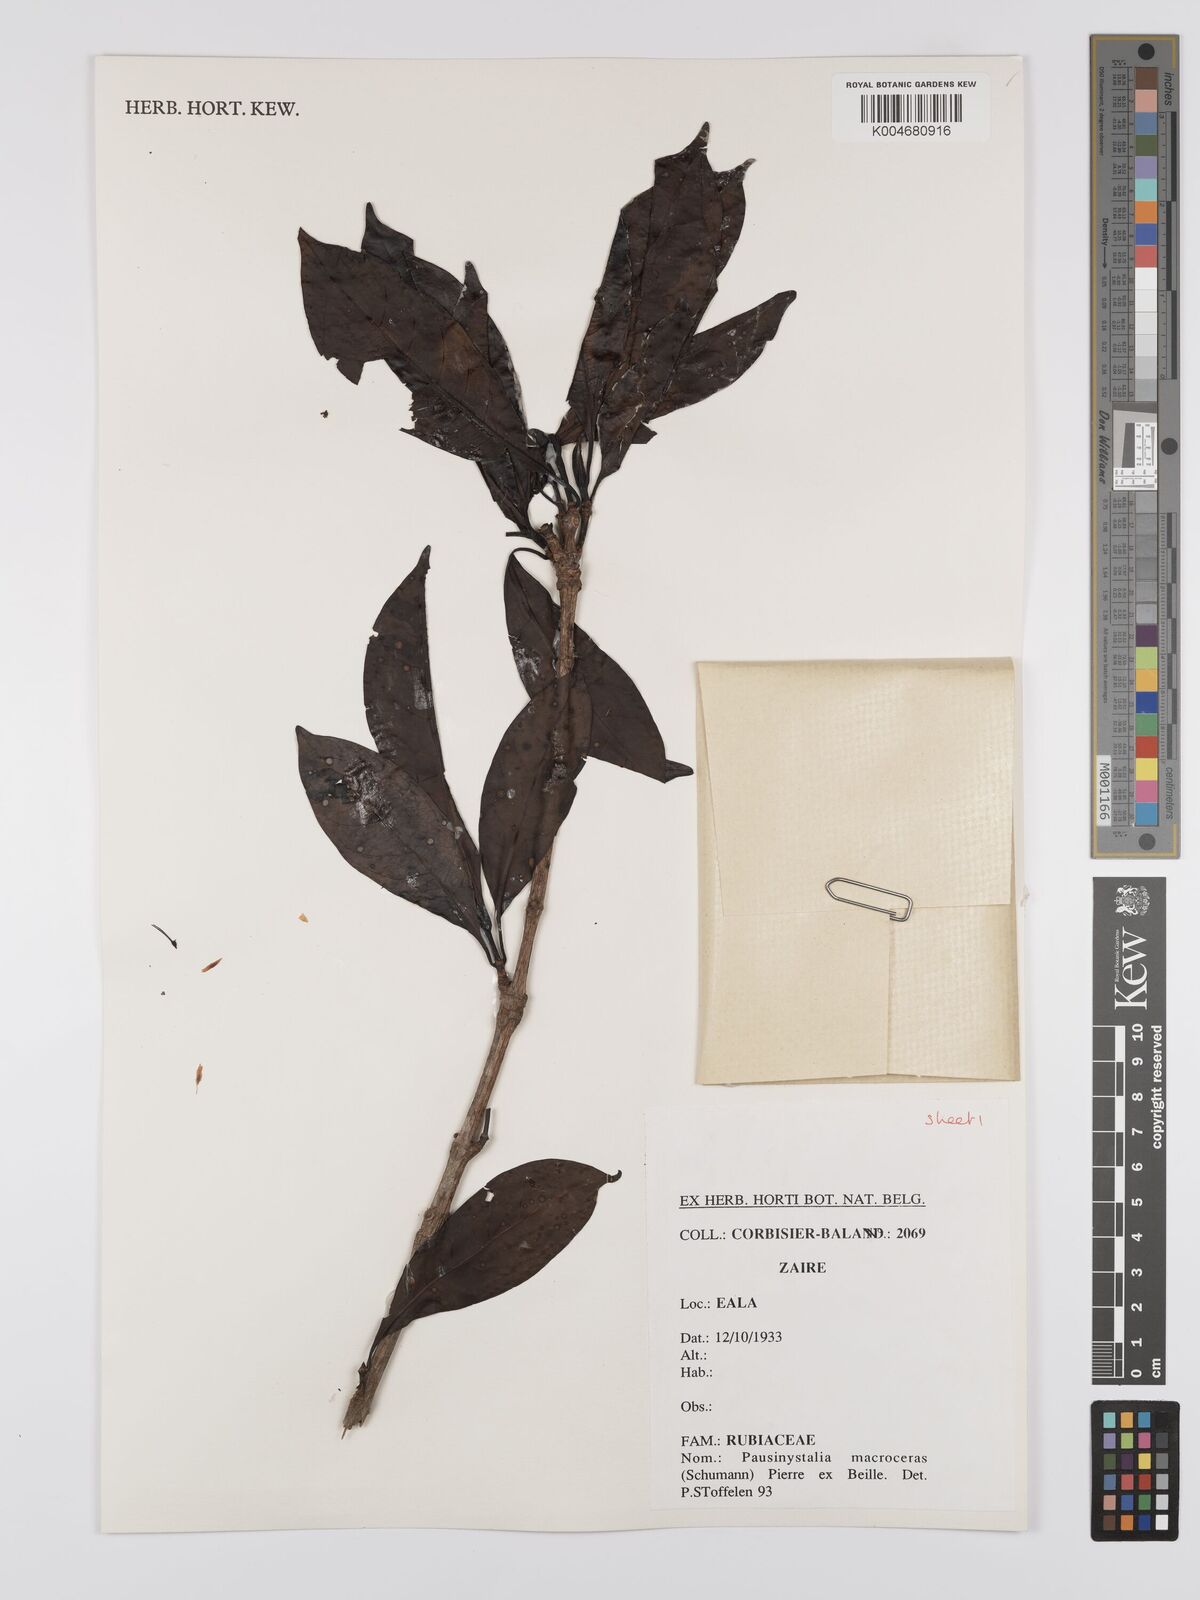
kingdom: Plantae
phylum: Tracheophyta
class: Magnoliopsida
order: Gentianales
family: Rubiaceae
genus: Corynanthe
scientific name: Corynanthe macroceras
